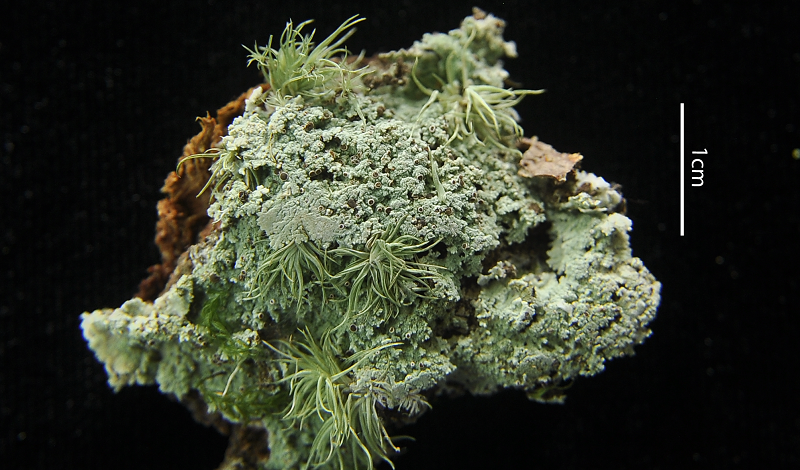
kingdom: Fungi
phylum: Ascomycota
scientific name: Ascomycota
